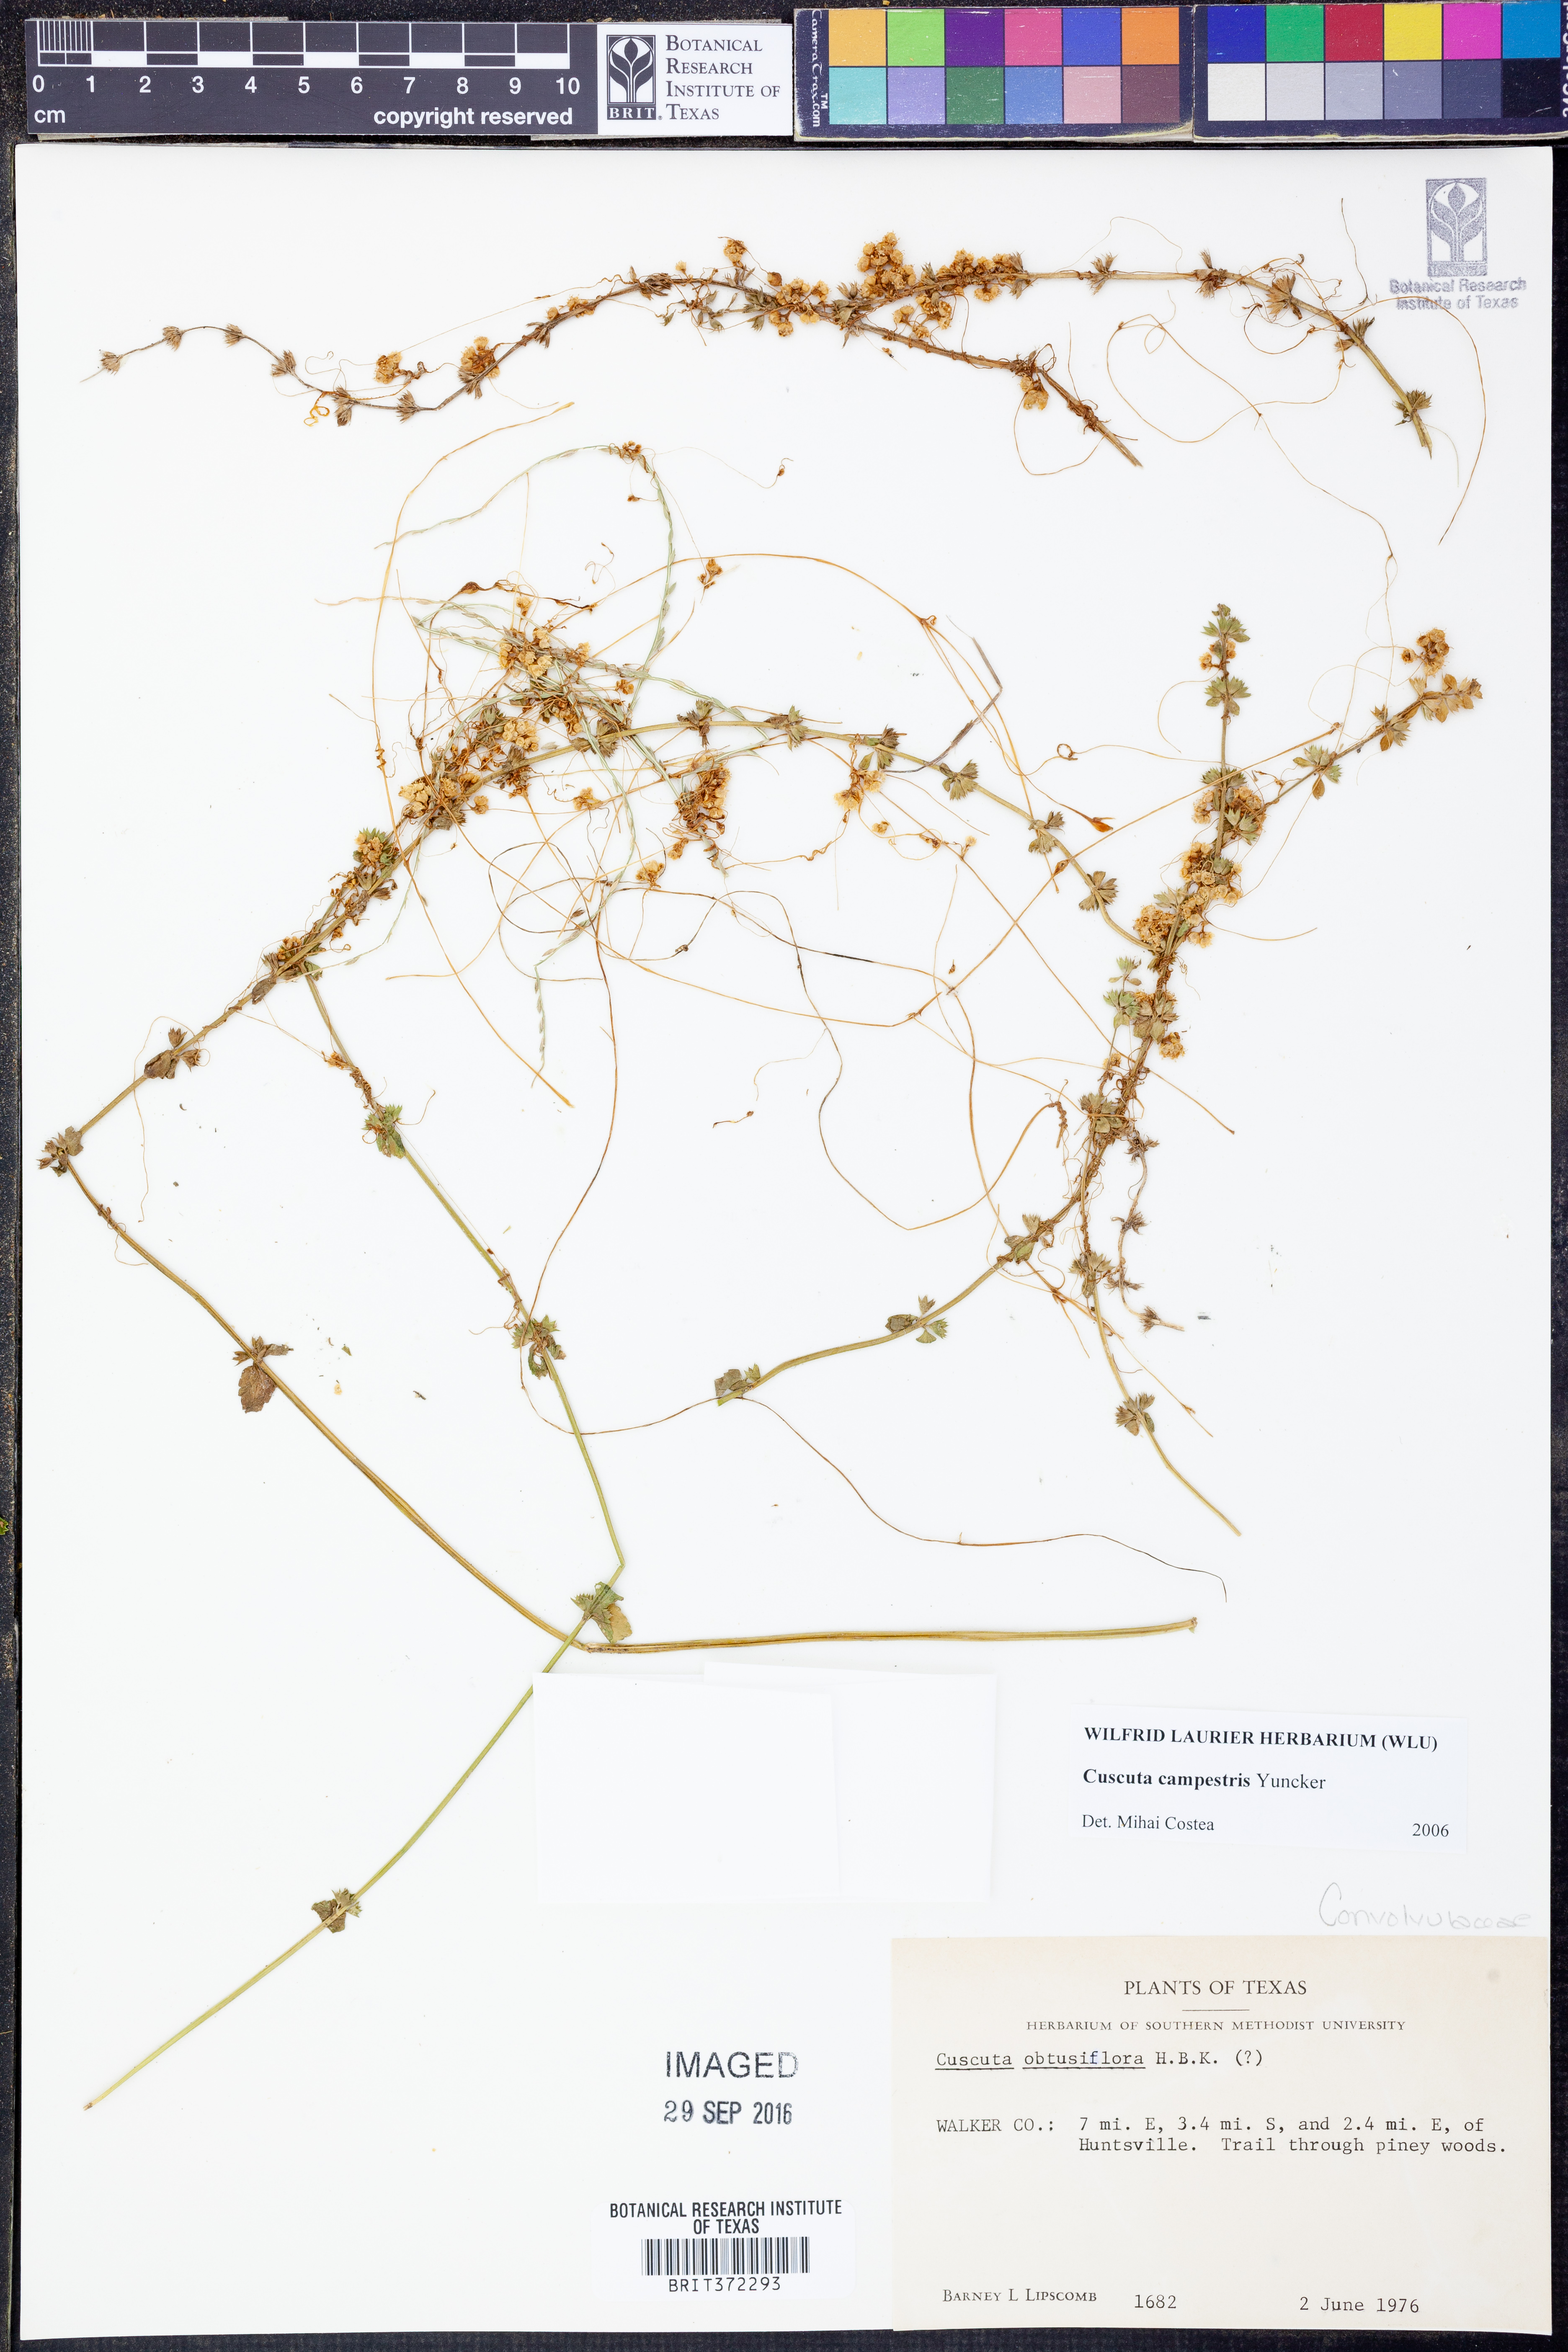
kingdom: Plantae
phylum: Tracheophyta
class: Magnoliopsida
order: Solanales
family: Convolvulaceae
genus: Cuscuta
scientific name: Cuscuta campestris
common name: Yellow dodder
